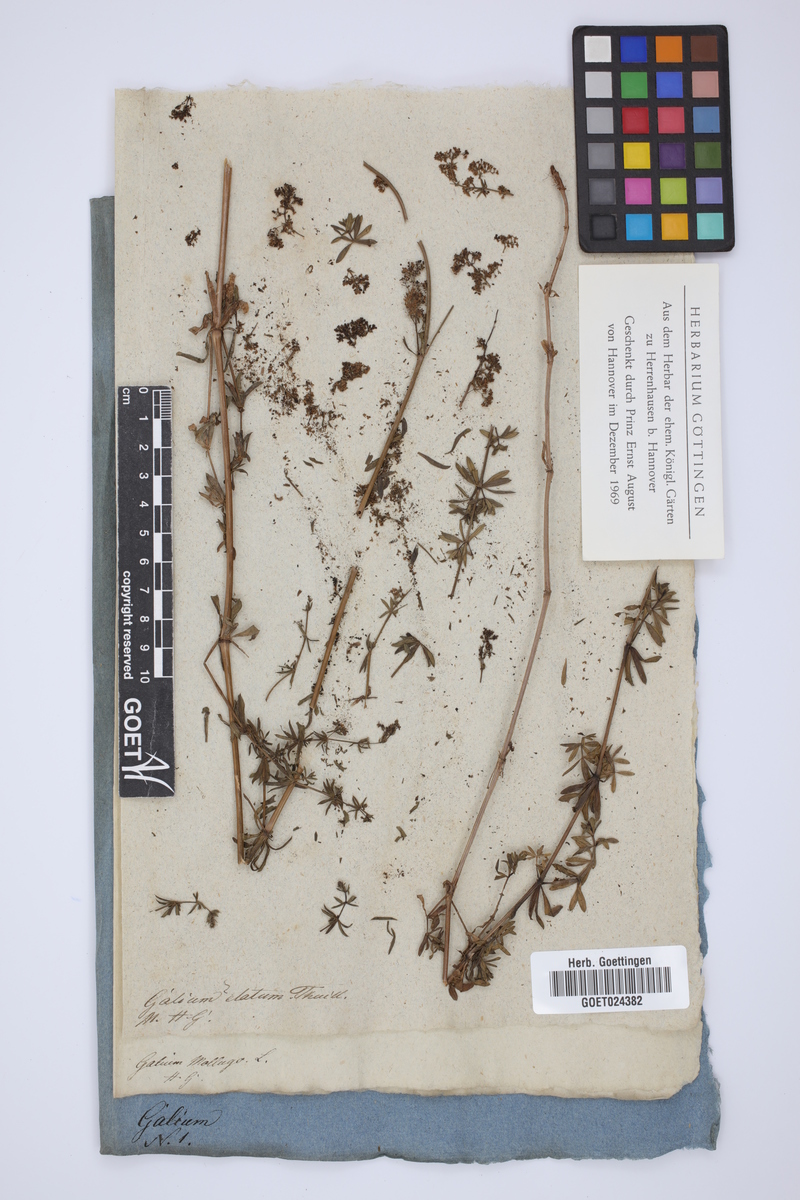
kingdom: Plantae
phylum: Tracheophyta
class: Magnoliopsida
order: Gentianales
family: Rubiaceae
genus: Galium
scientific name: Galium mollugo
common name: Hedge bedstraw
